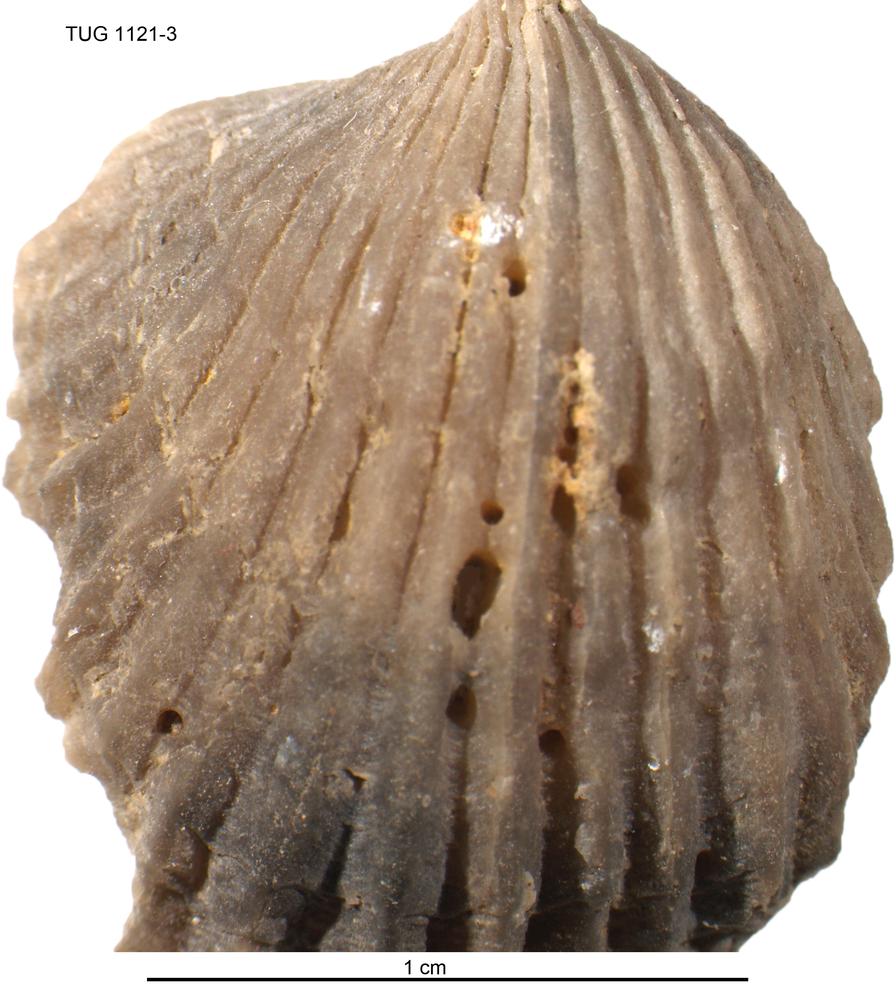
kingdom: Animalia
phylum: Brachiopoda
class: Rhynchonellata
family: Orthidae
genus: Glossorthis
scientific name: Glossorthis
